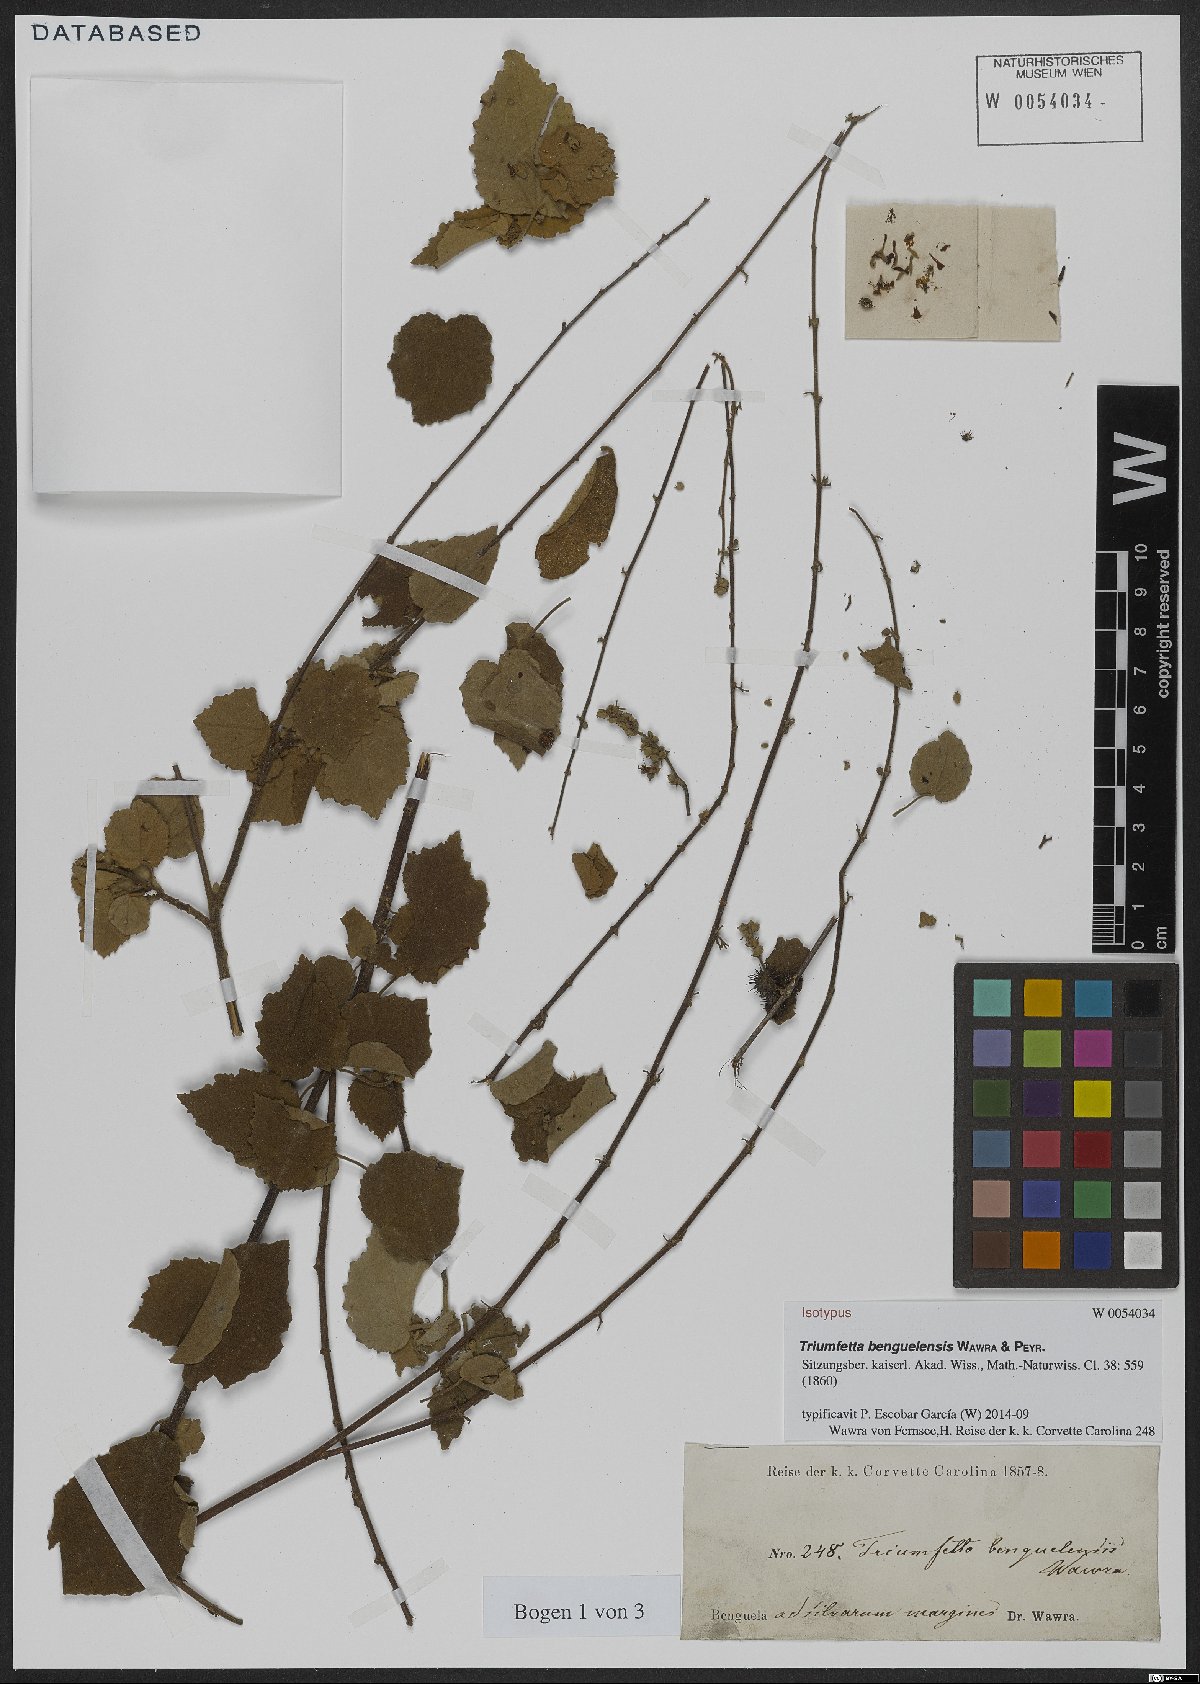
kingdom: Plantae
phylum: Tracheophyta
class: Magnoliopsida
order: Malvales
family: Malvaceae
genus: Triumfetta
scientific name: Triumfetta benguelensis
